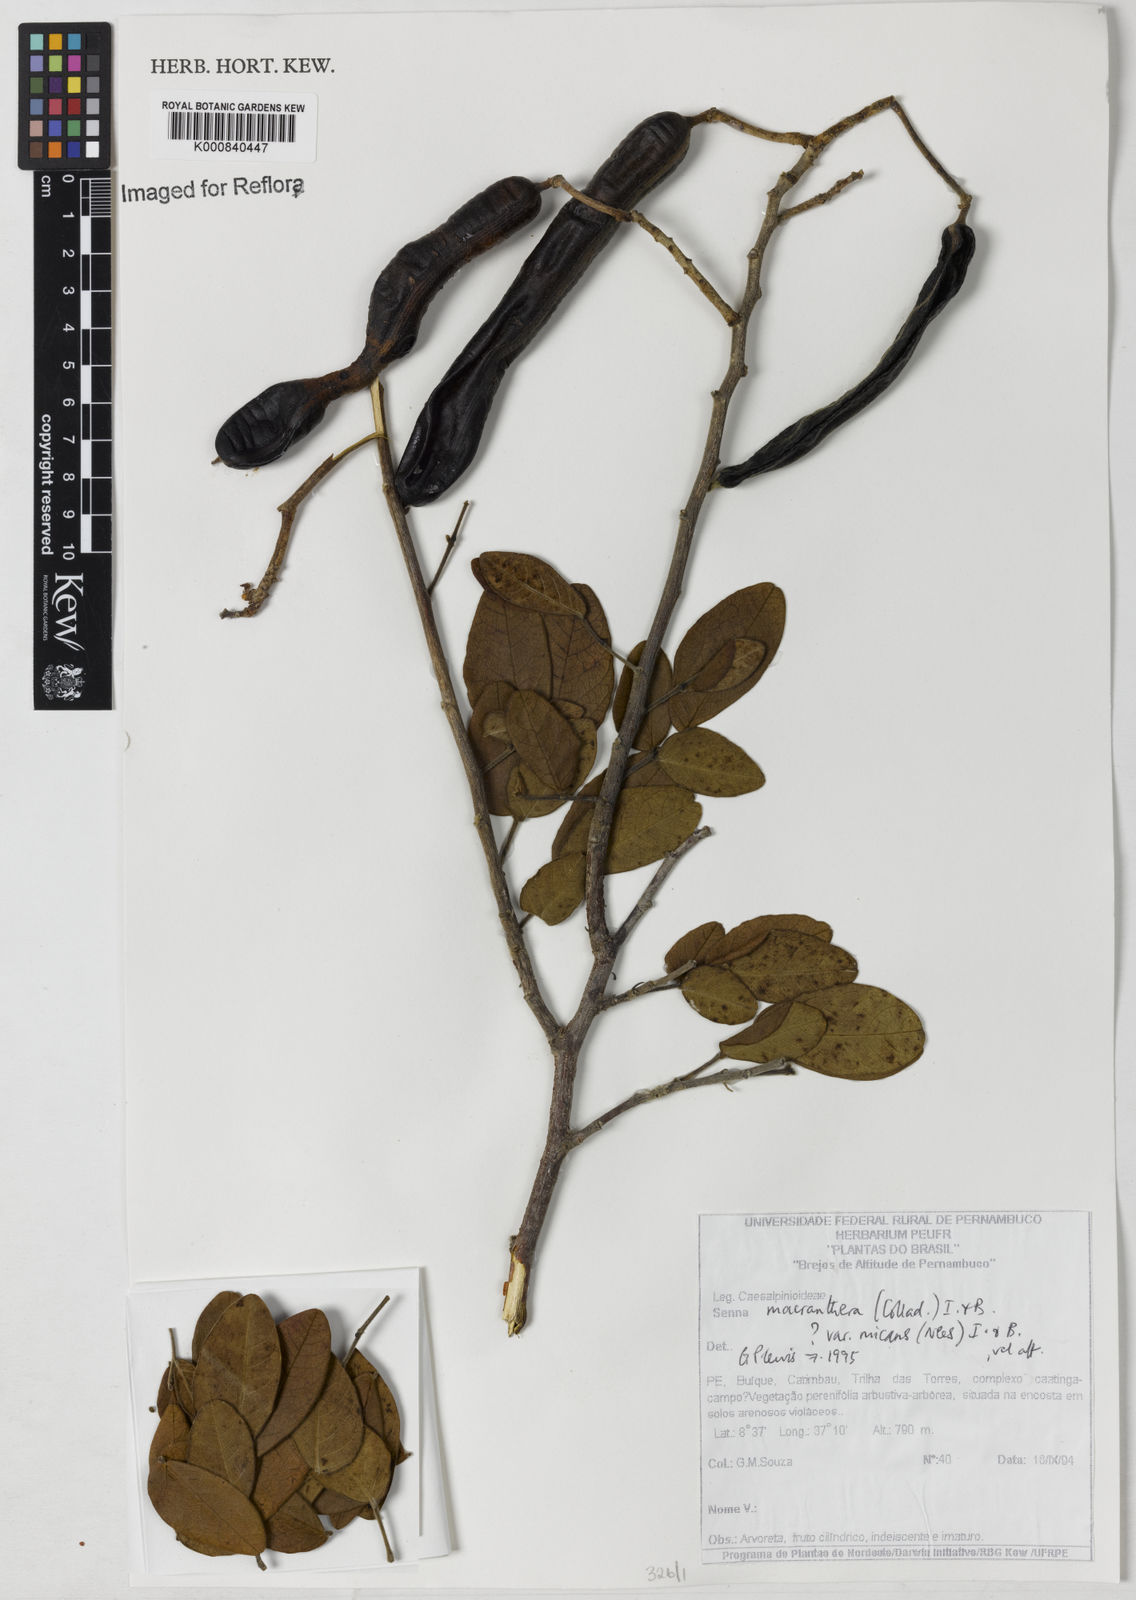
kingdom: Plantae
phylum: Tracheophyta
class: Magnoliopsida
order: Fabales
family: Fabaceae
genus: Senna
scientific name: Senna macranthera
